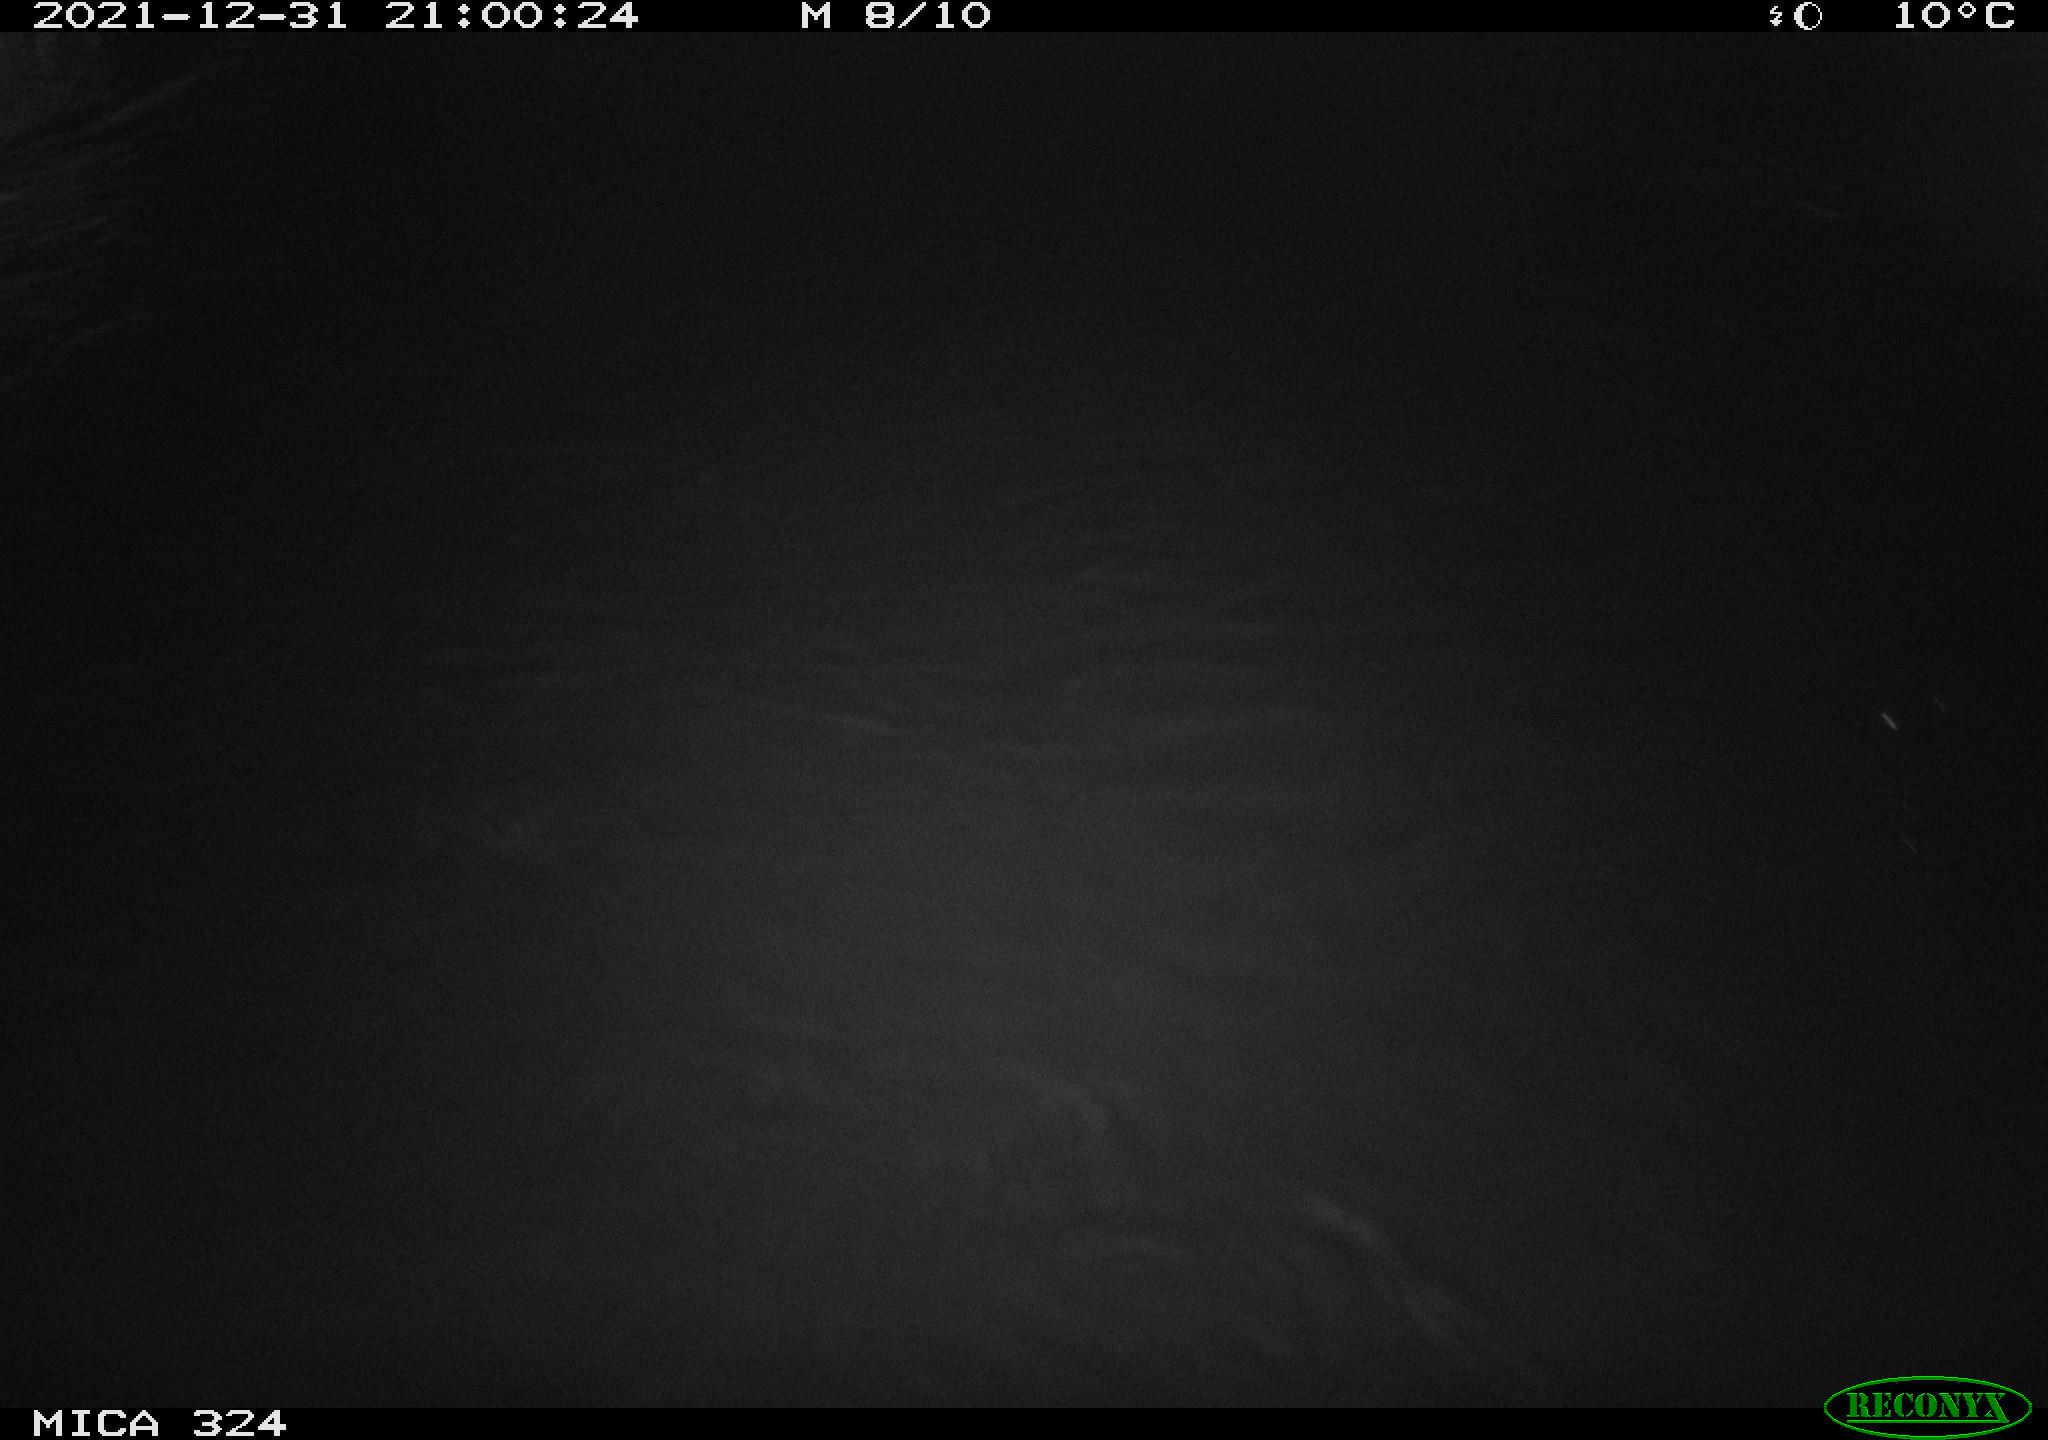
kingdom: Animalia
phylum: Chordata
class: Mammalia
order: Rodentia
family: Cricetidae
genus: Ondatra
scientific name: Ondatra zibethicus
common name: Muskrat
